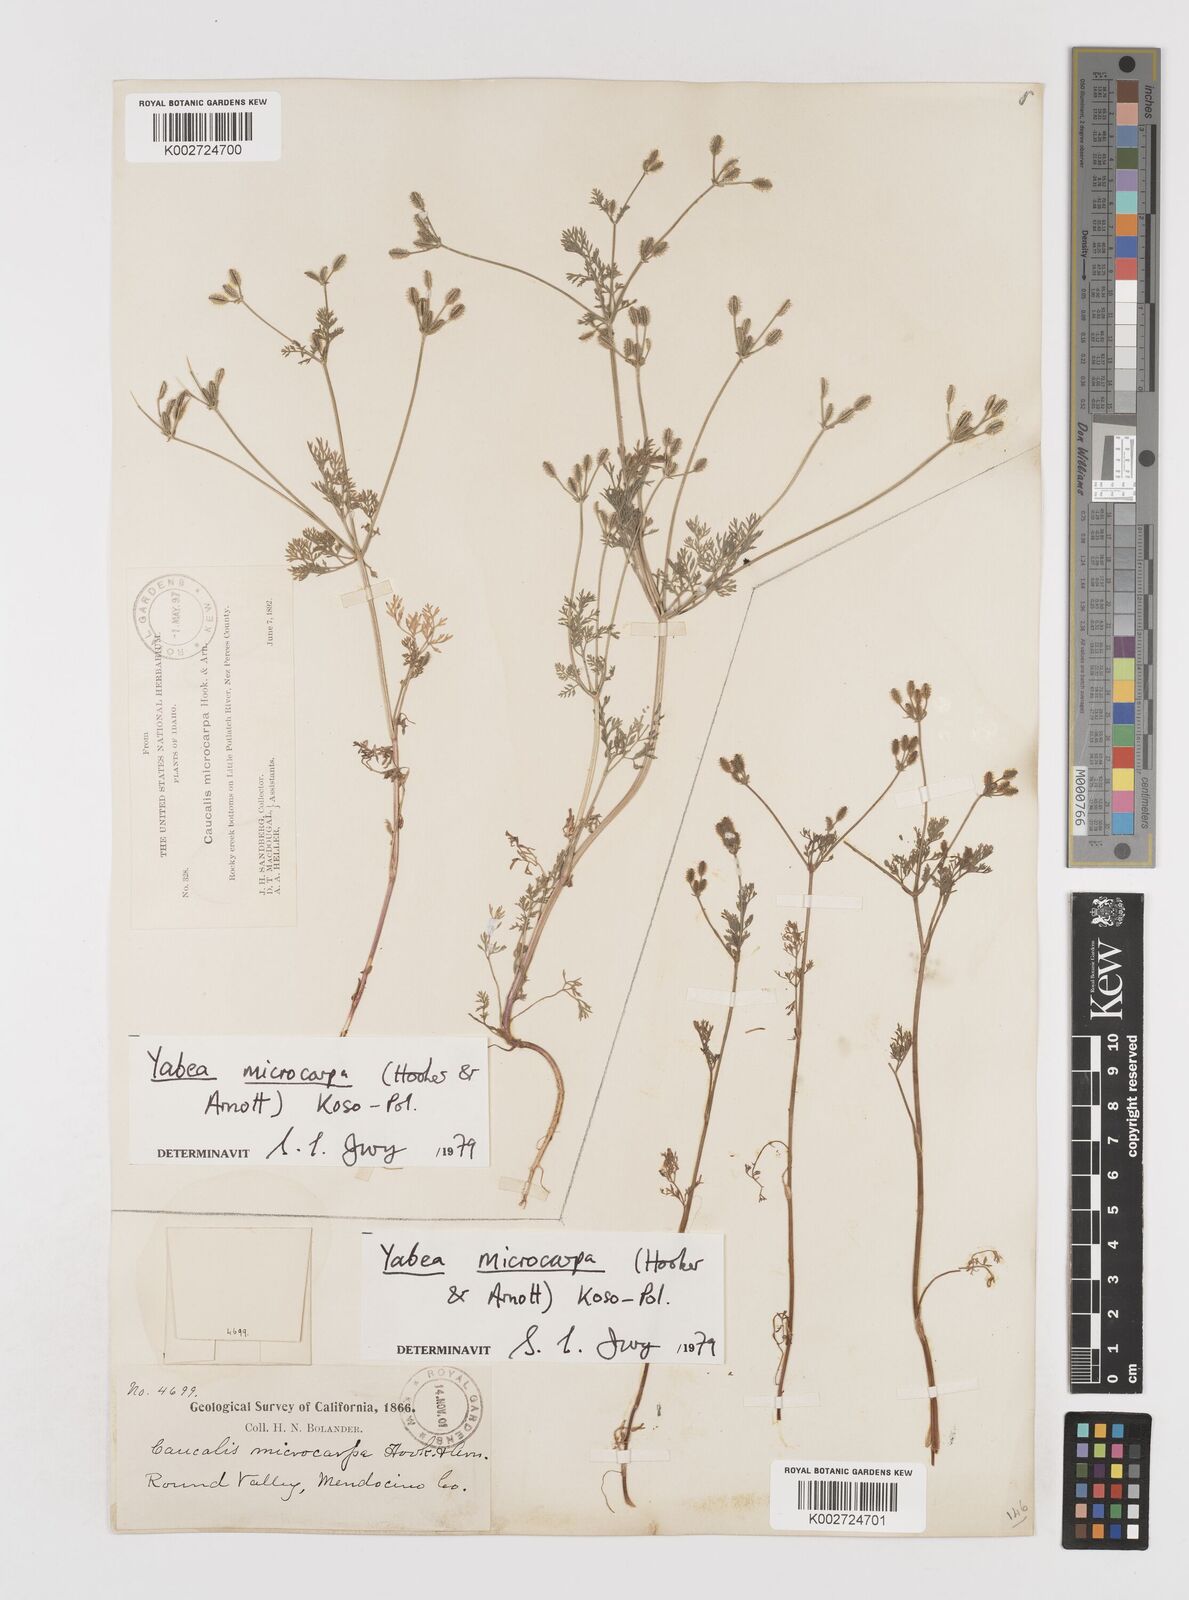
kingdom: Plantae
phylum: Tracheophyta
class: Magnoliopsida
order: Apiales
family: Apiaceae
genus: Yabea
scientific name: Yabea microcarpa
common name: False carrot
